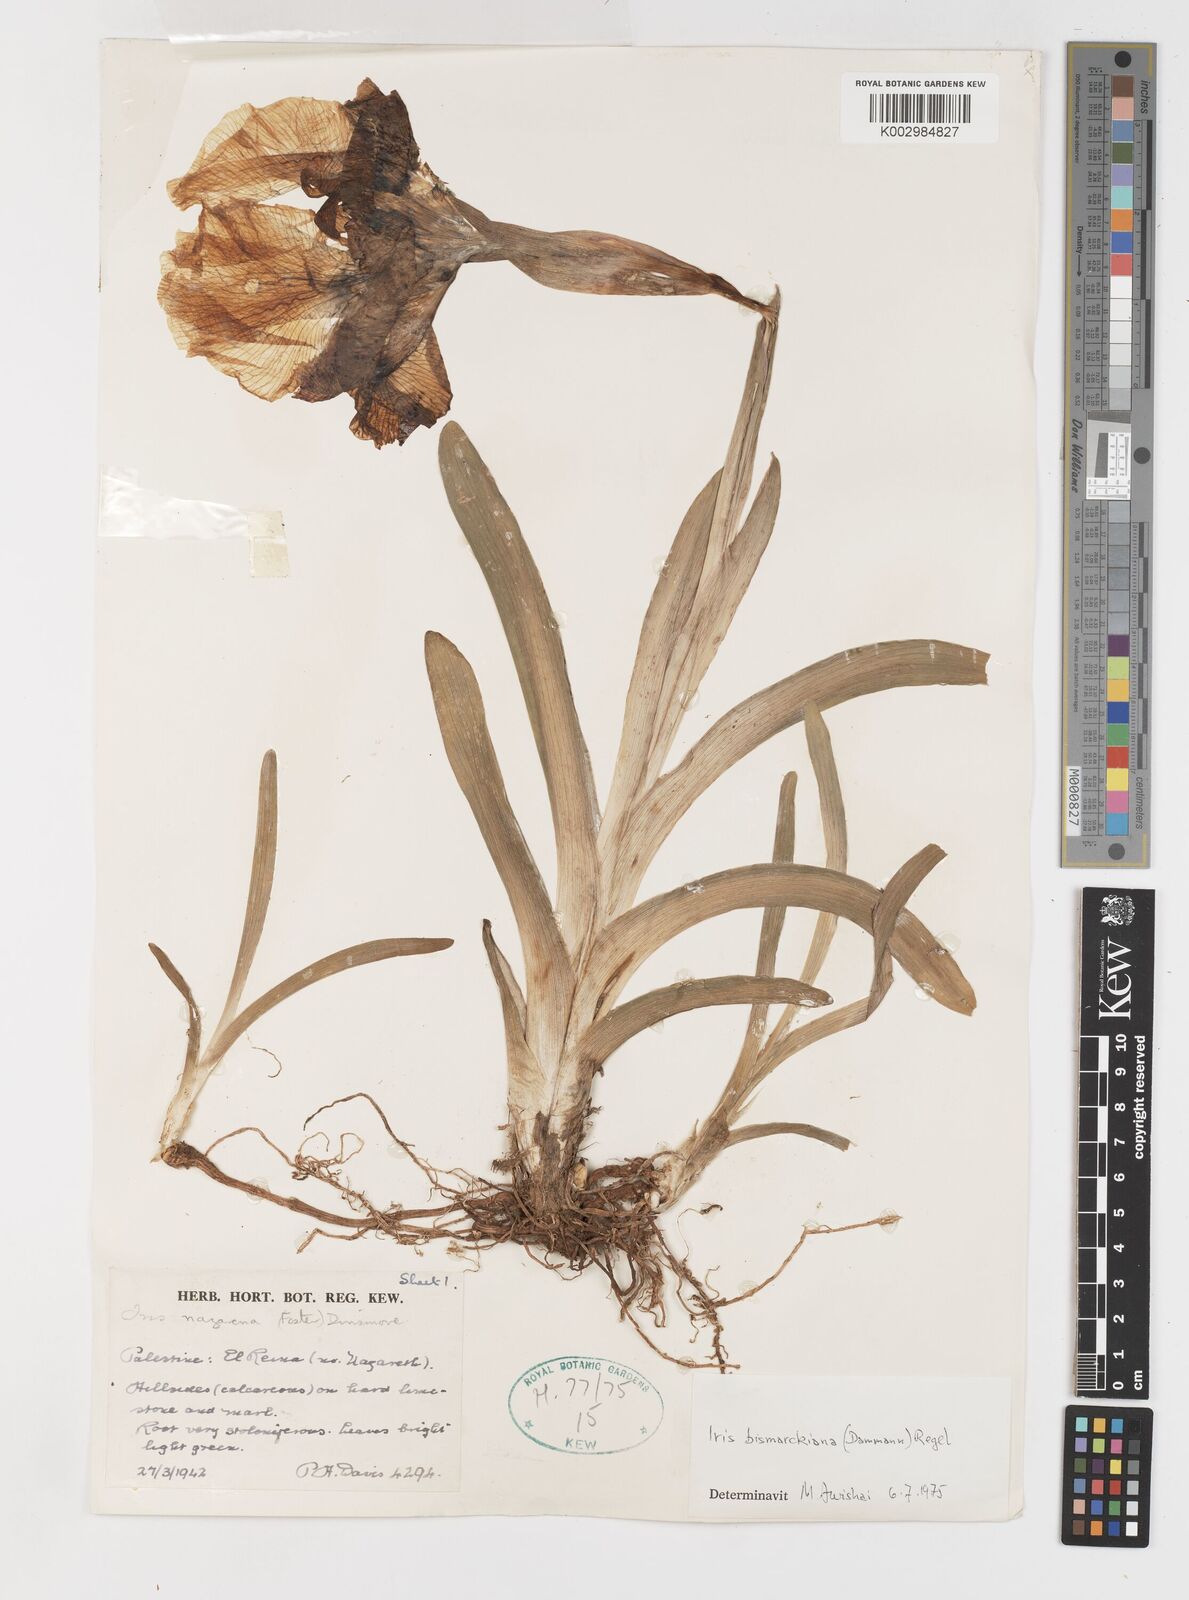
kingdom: Plantae
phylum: Tracheophyta
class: Liliopsida
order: Asparagales
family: Iridaceae
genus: Iris
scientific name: Iris bismarckiana
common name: Nazareth iris
